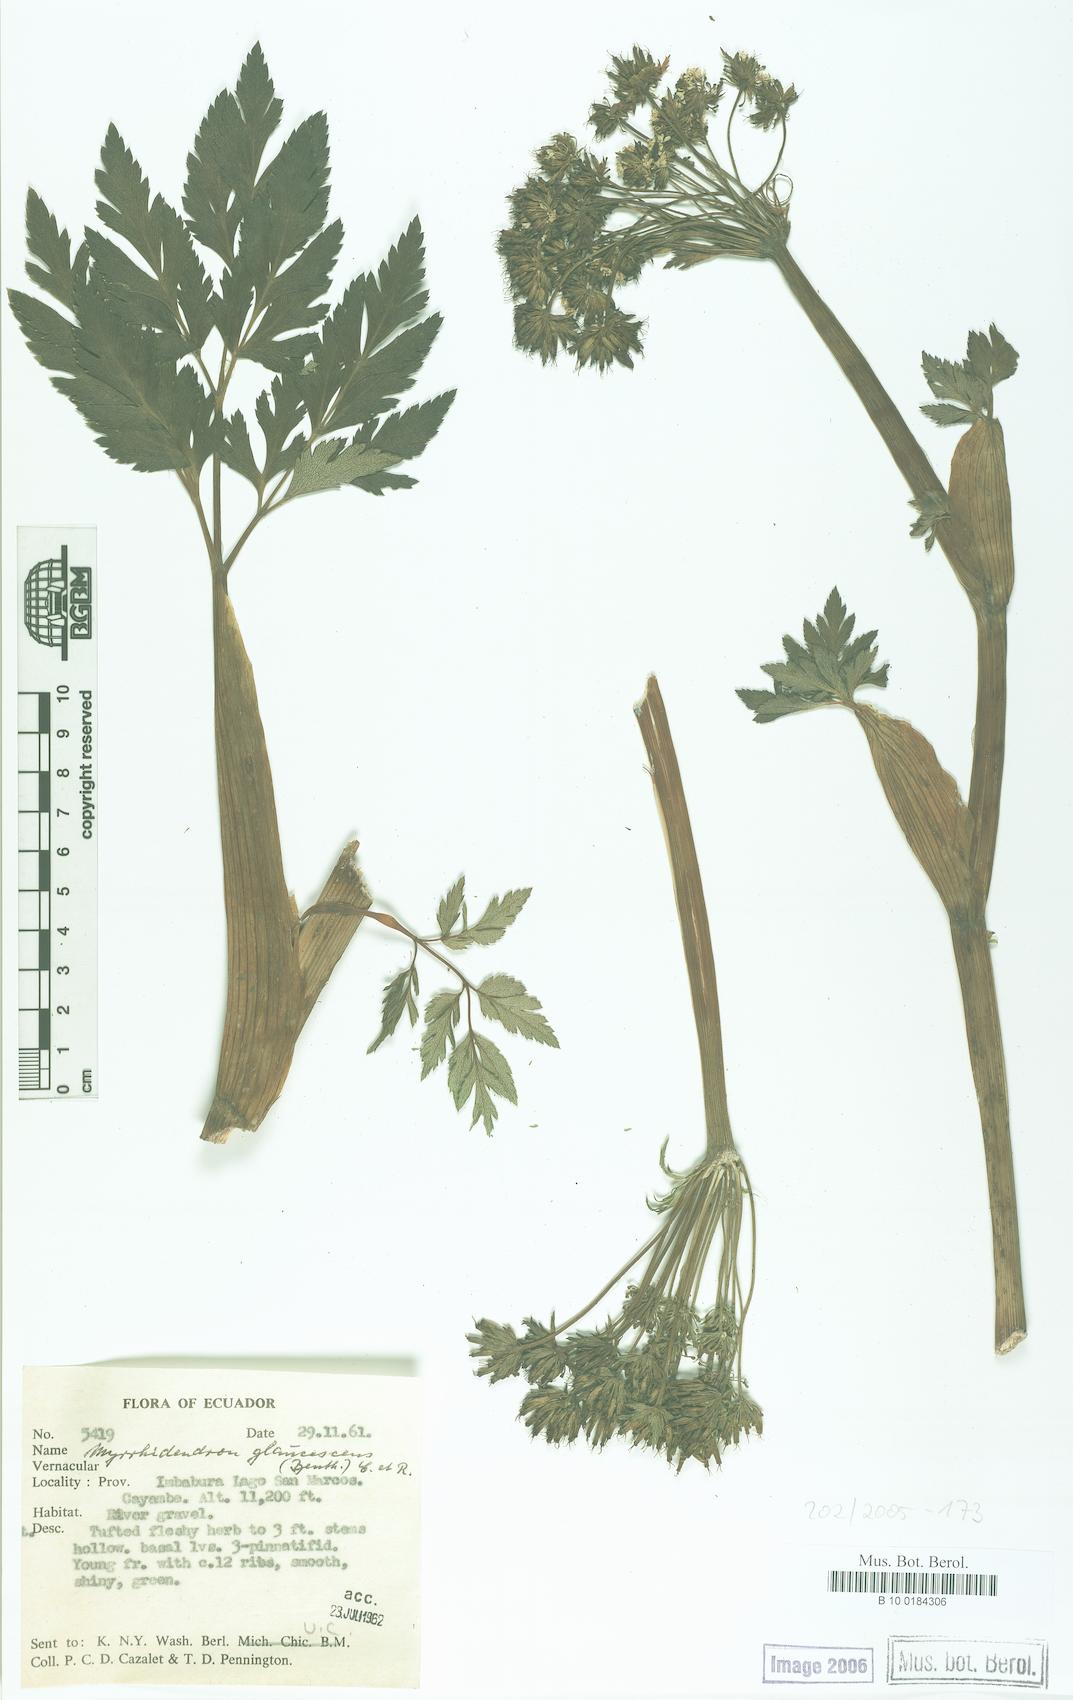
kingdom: Plantae
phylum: Tracheophyta
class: Magnoliopsida
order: Apiales
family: Apiaceae
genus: Myrrhidendron
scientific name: Myrrhidendron glaucescens
